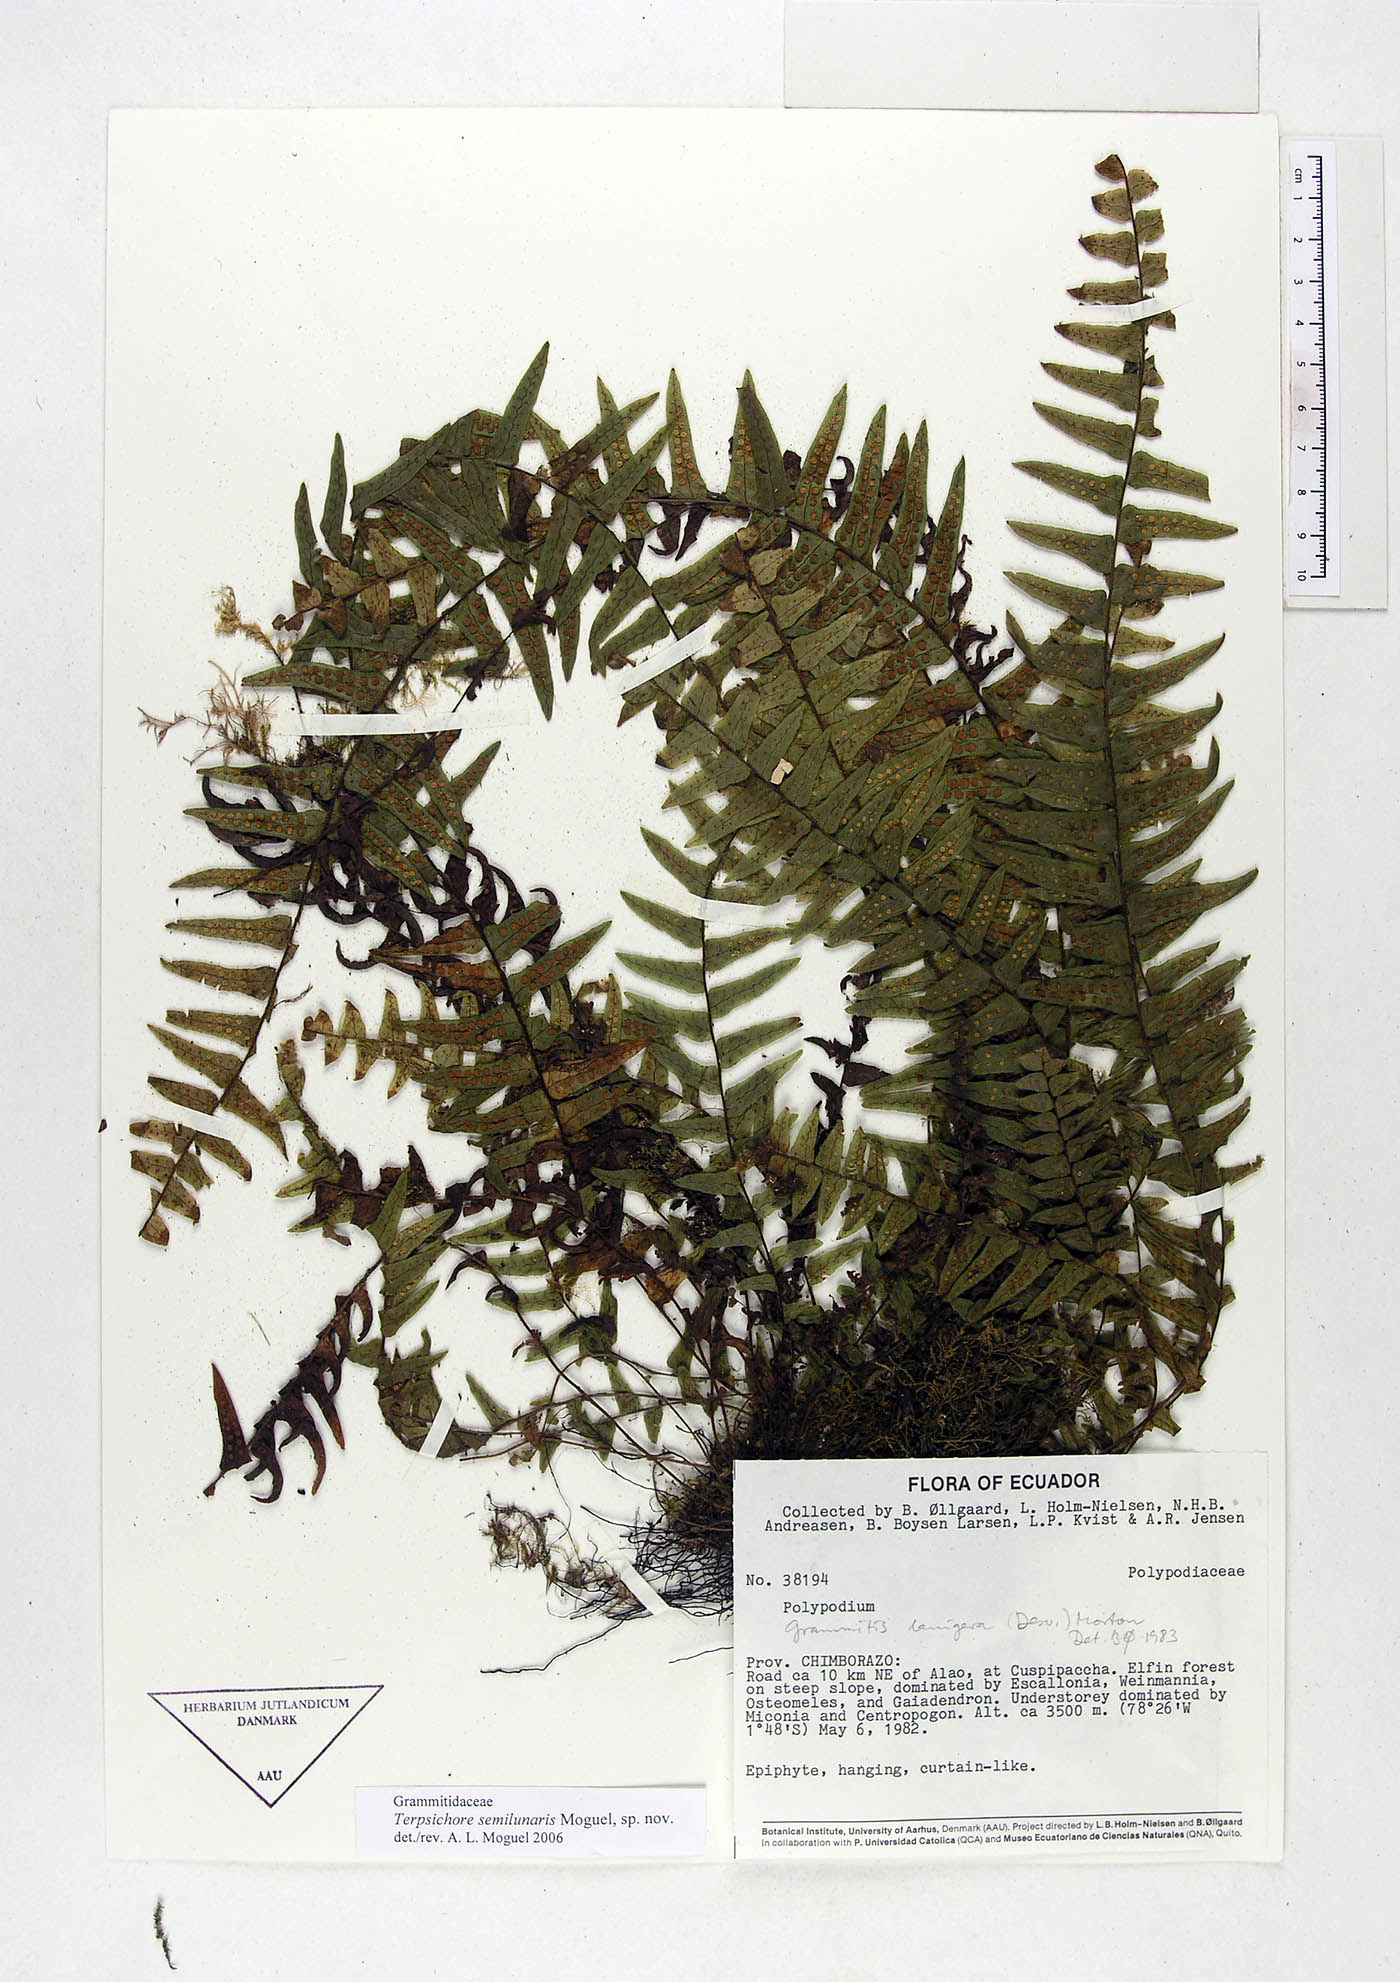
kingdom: Plantae
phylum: Tracheophyta
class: Polypodiopsida
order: Polypodiales
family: Polypodiaceae
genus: Alansmia
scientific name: Alansmia semilunaris
